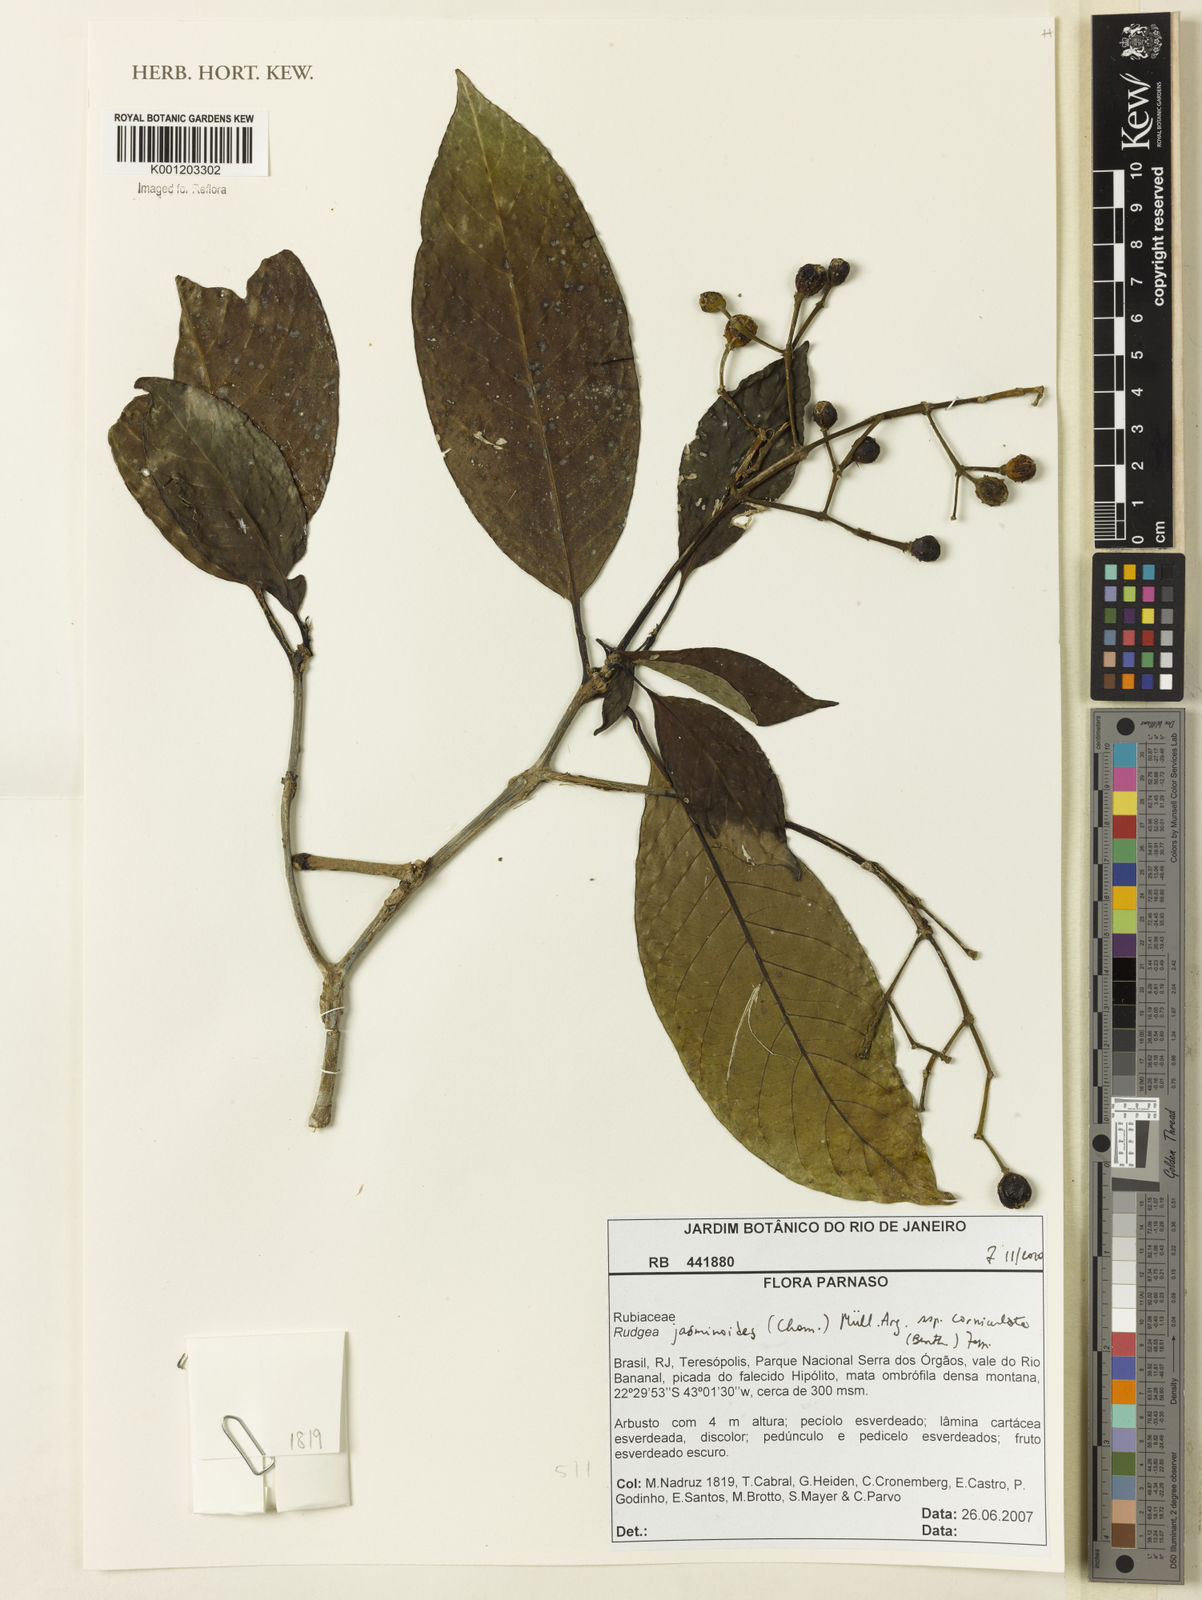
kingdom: Plantae
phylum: Tracheophyta
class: Magnoliopsida
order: Gentianales
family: Rubiaceae
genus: Rudgea
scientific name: Rudgea
